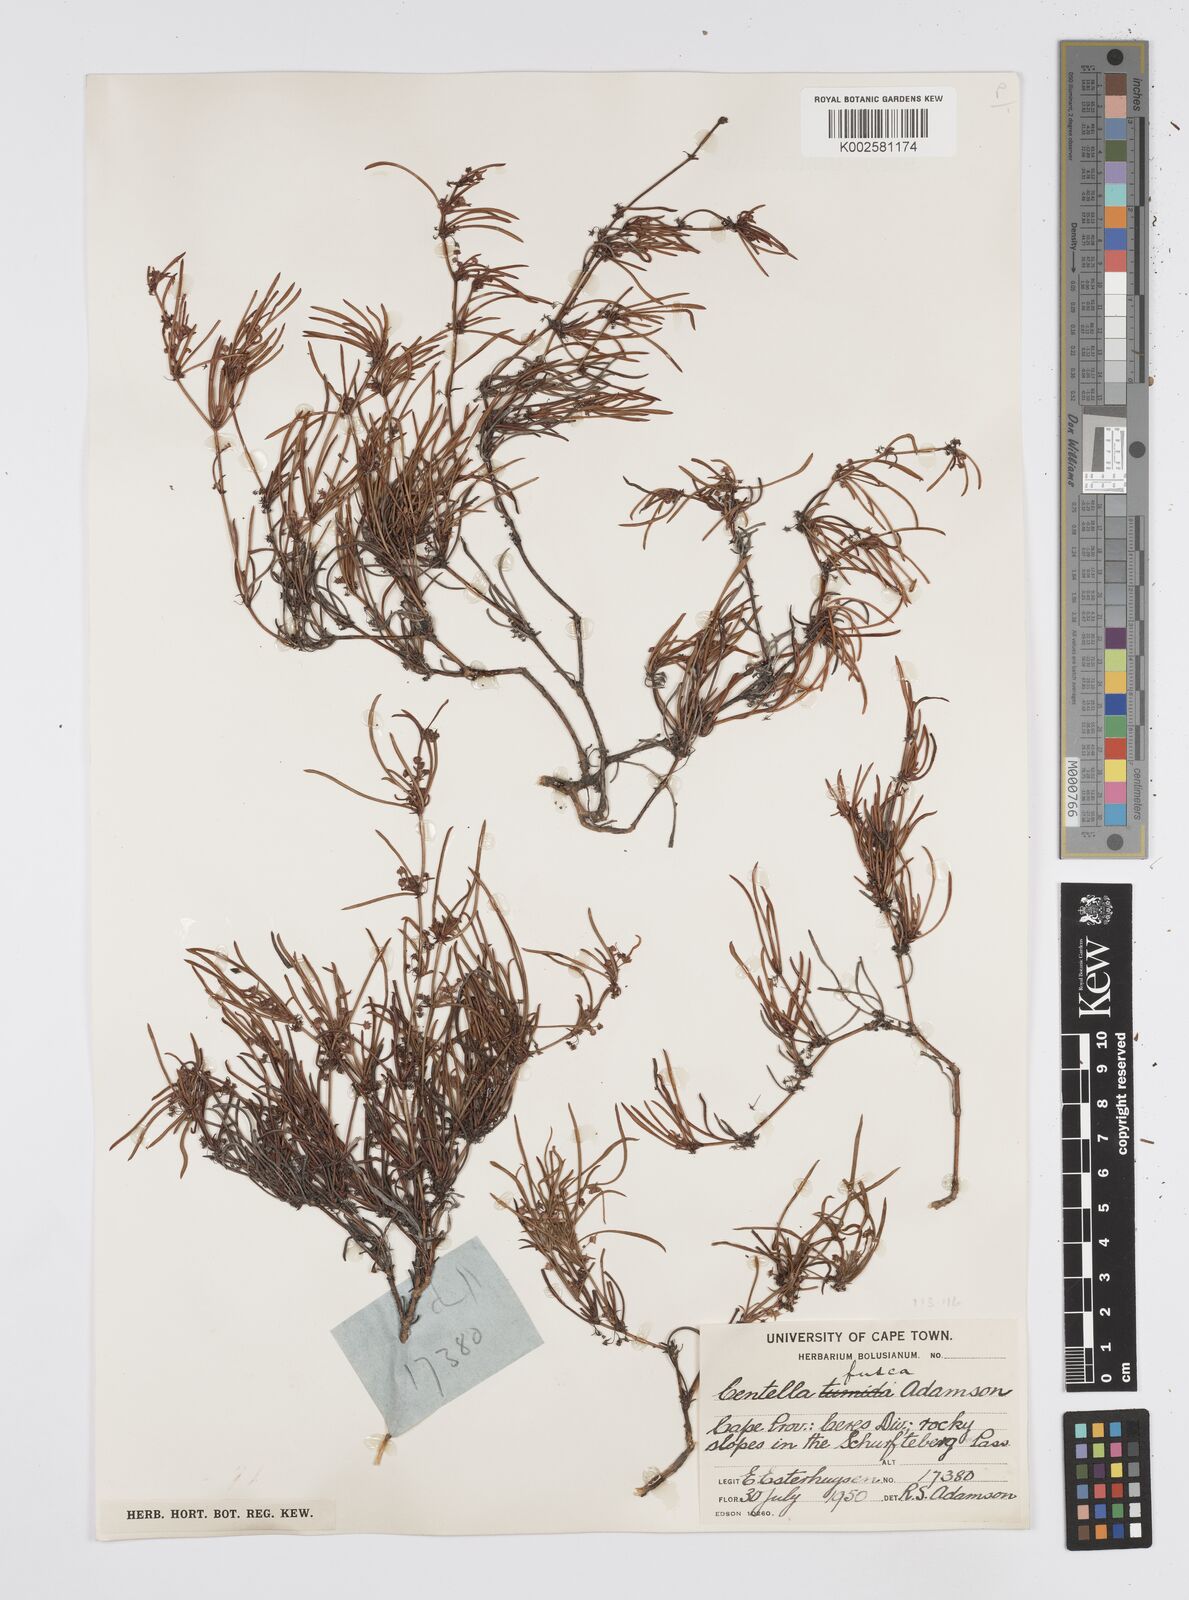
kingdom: Plantae
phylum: Tracheophyta
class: Magnoliopsida
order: Apiales
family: Apiaceae
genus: Centella
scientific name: Centella fusca
